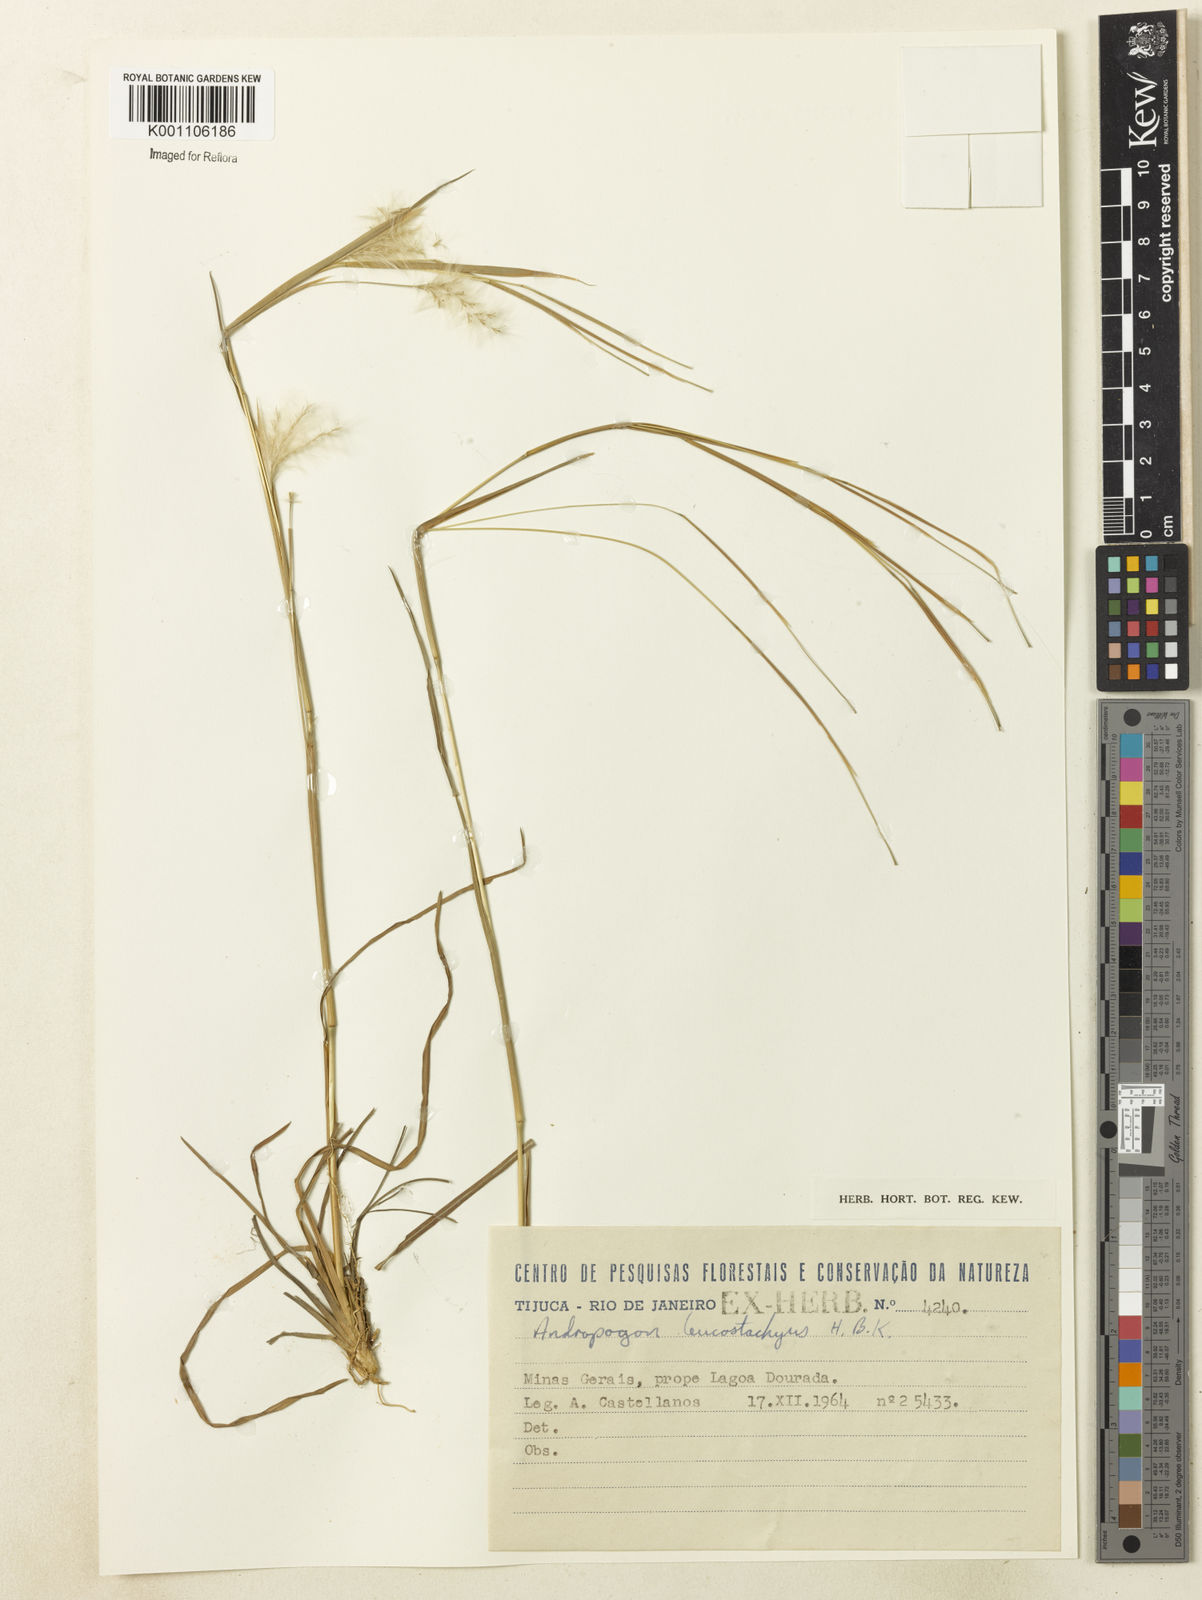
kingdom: Plantae
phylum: Tracheophyta
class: Liliopsida
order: Poales
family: Poaceae
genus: Andropogon
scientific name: Andropogon leucostachyus
